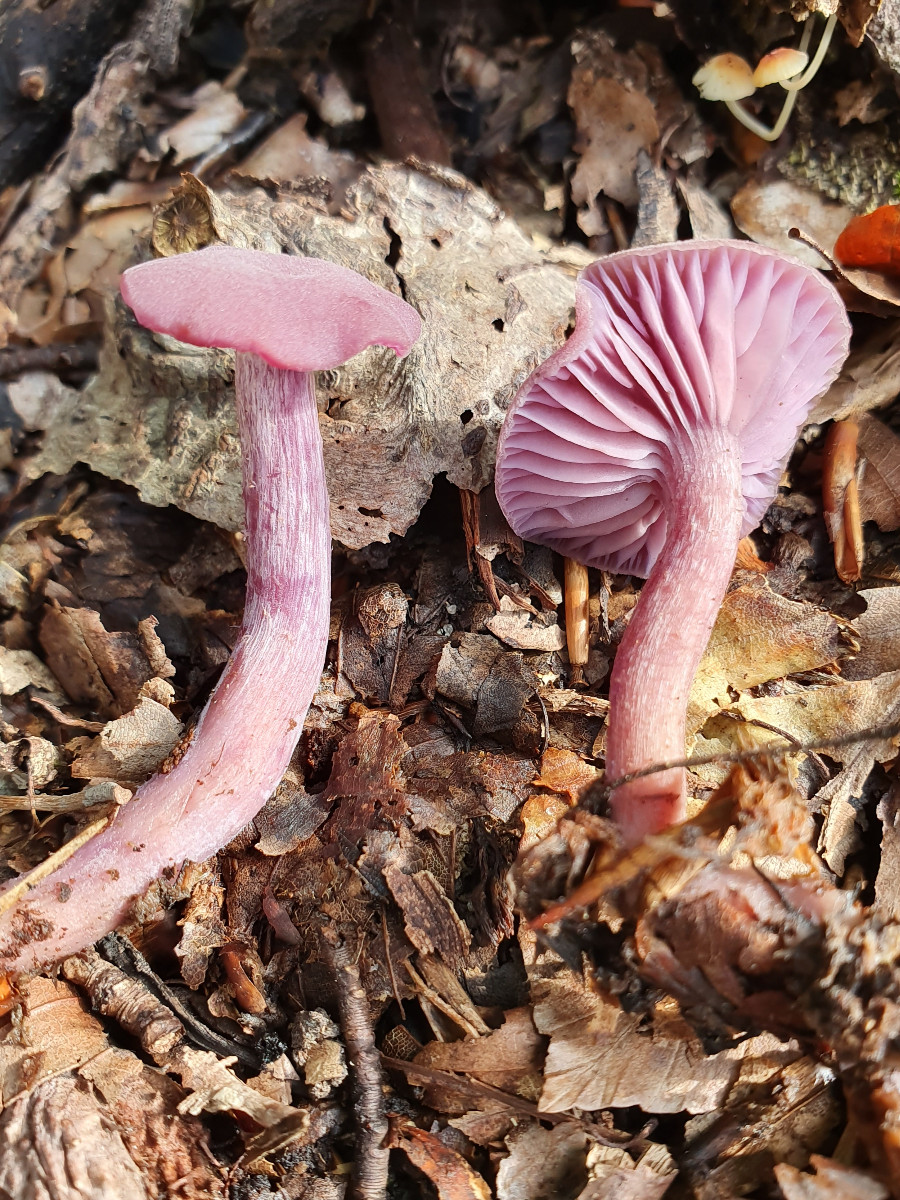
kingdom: Fungi
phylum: Basidiomycota
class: Agaricomycetes
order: Agaricales
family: Hydnangiaceae
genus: Laccaria
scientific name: Laccaria amethystina
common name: violet ametysthat
